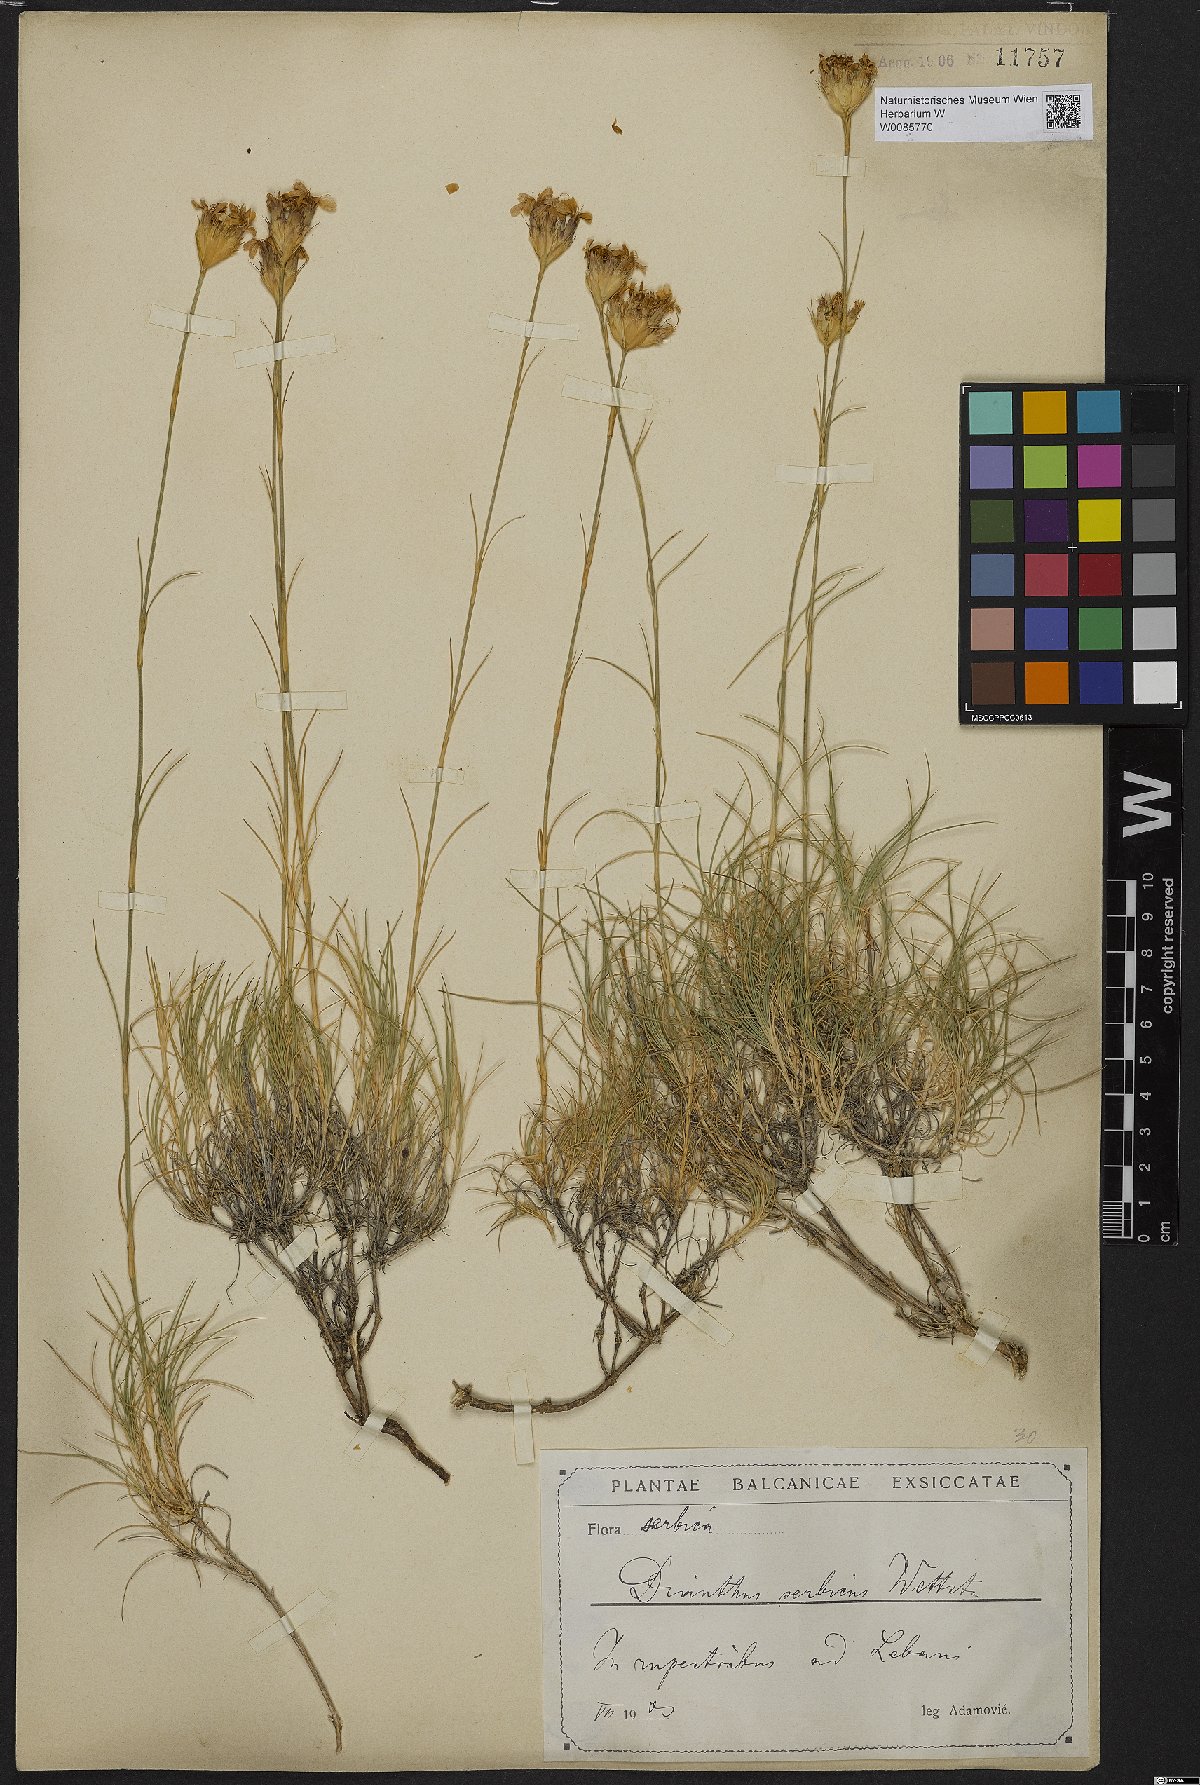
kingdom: Plantae
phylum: Tracheophyta
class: Magnoliopsida
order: Caryophyllales
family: Caryophyllaceae
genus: Dianthus
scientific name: Dianthus pinifolius
